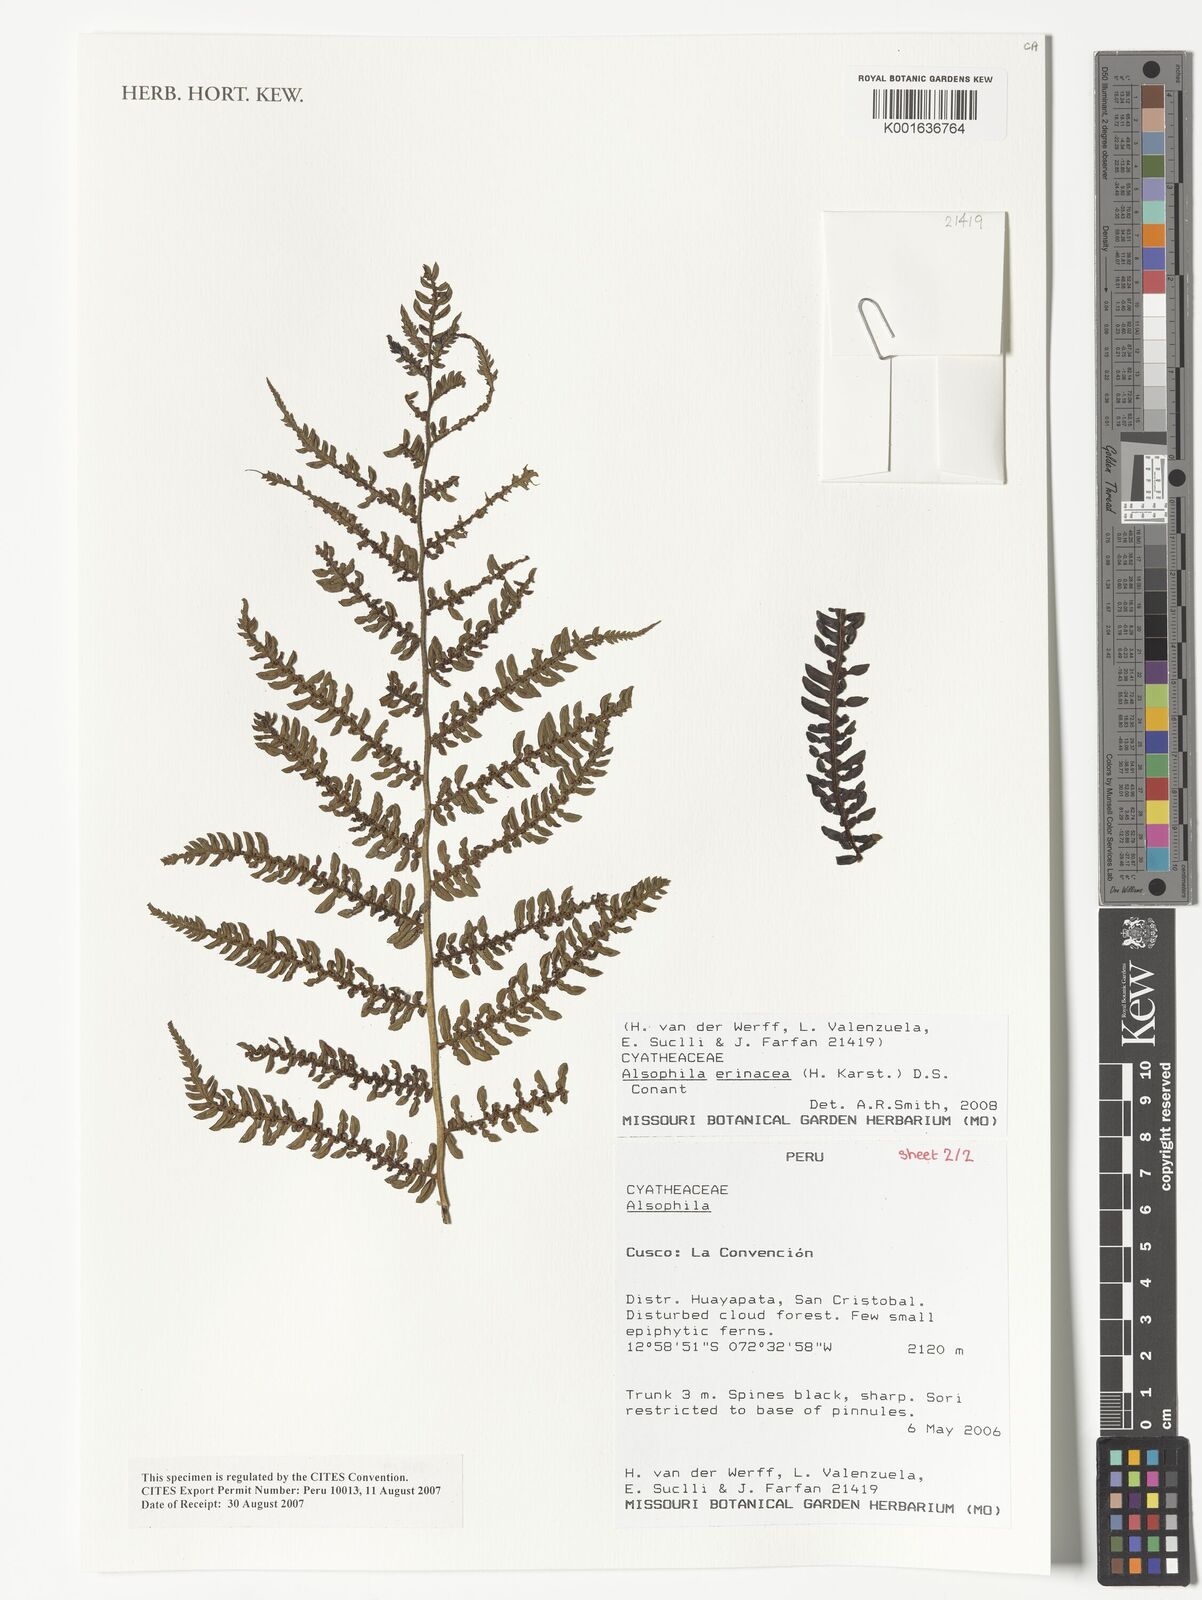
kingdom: Plantae
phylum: Tracheophyta
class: Polypodiopsida
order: Cyatheales
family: Cyatheaceae
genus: Alsophila
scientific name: Alsophila erinacea
